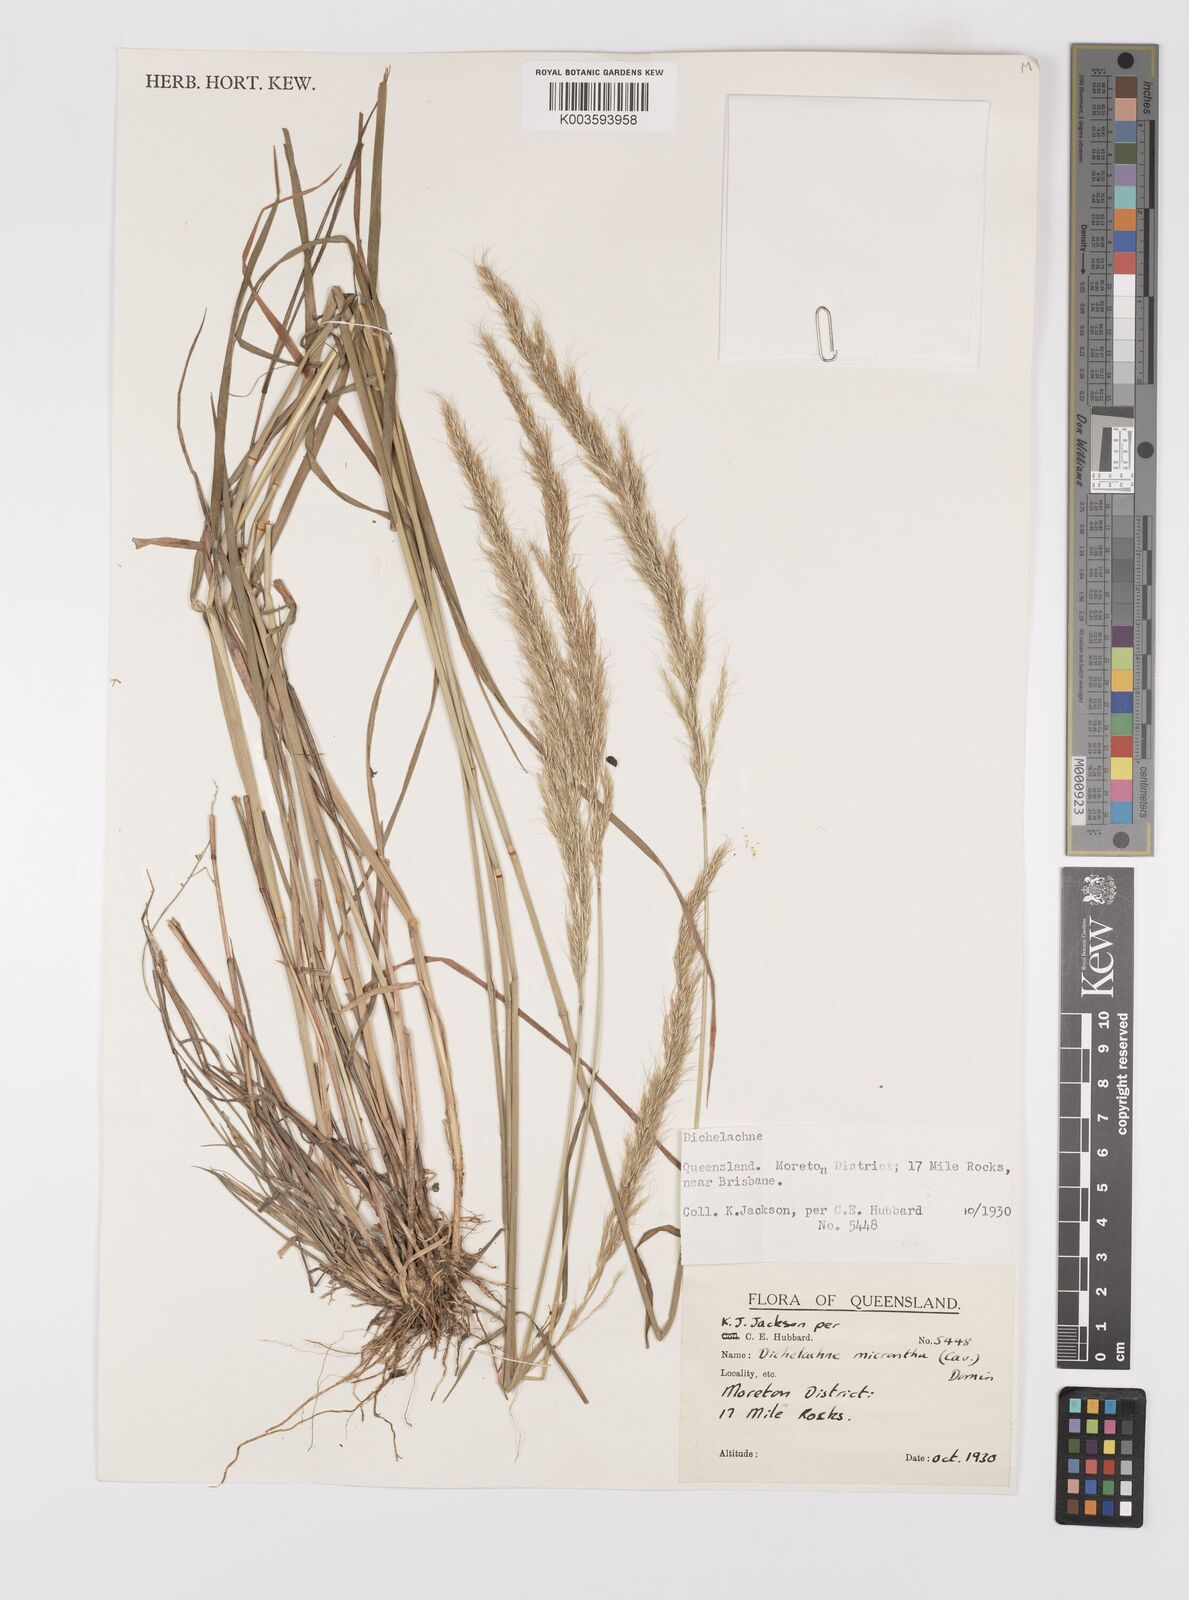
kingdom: Plantae
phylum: Tracheophyta
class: Liliopsida
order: Poales
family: Poaceae
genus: Dichelachne
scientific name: Dichelachne micrantha
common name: Plumegrass
